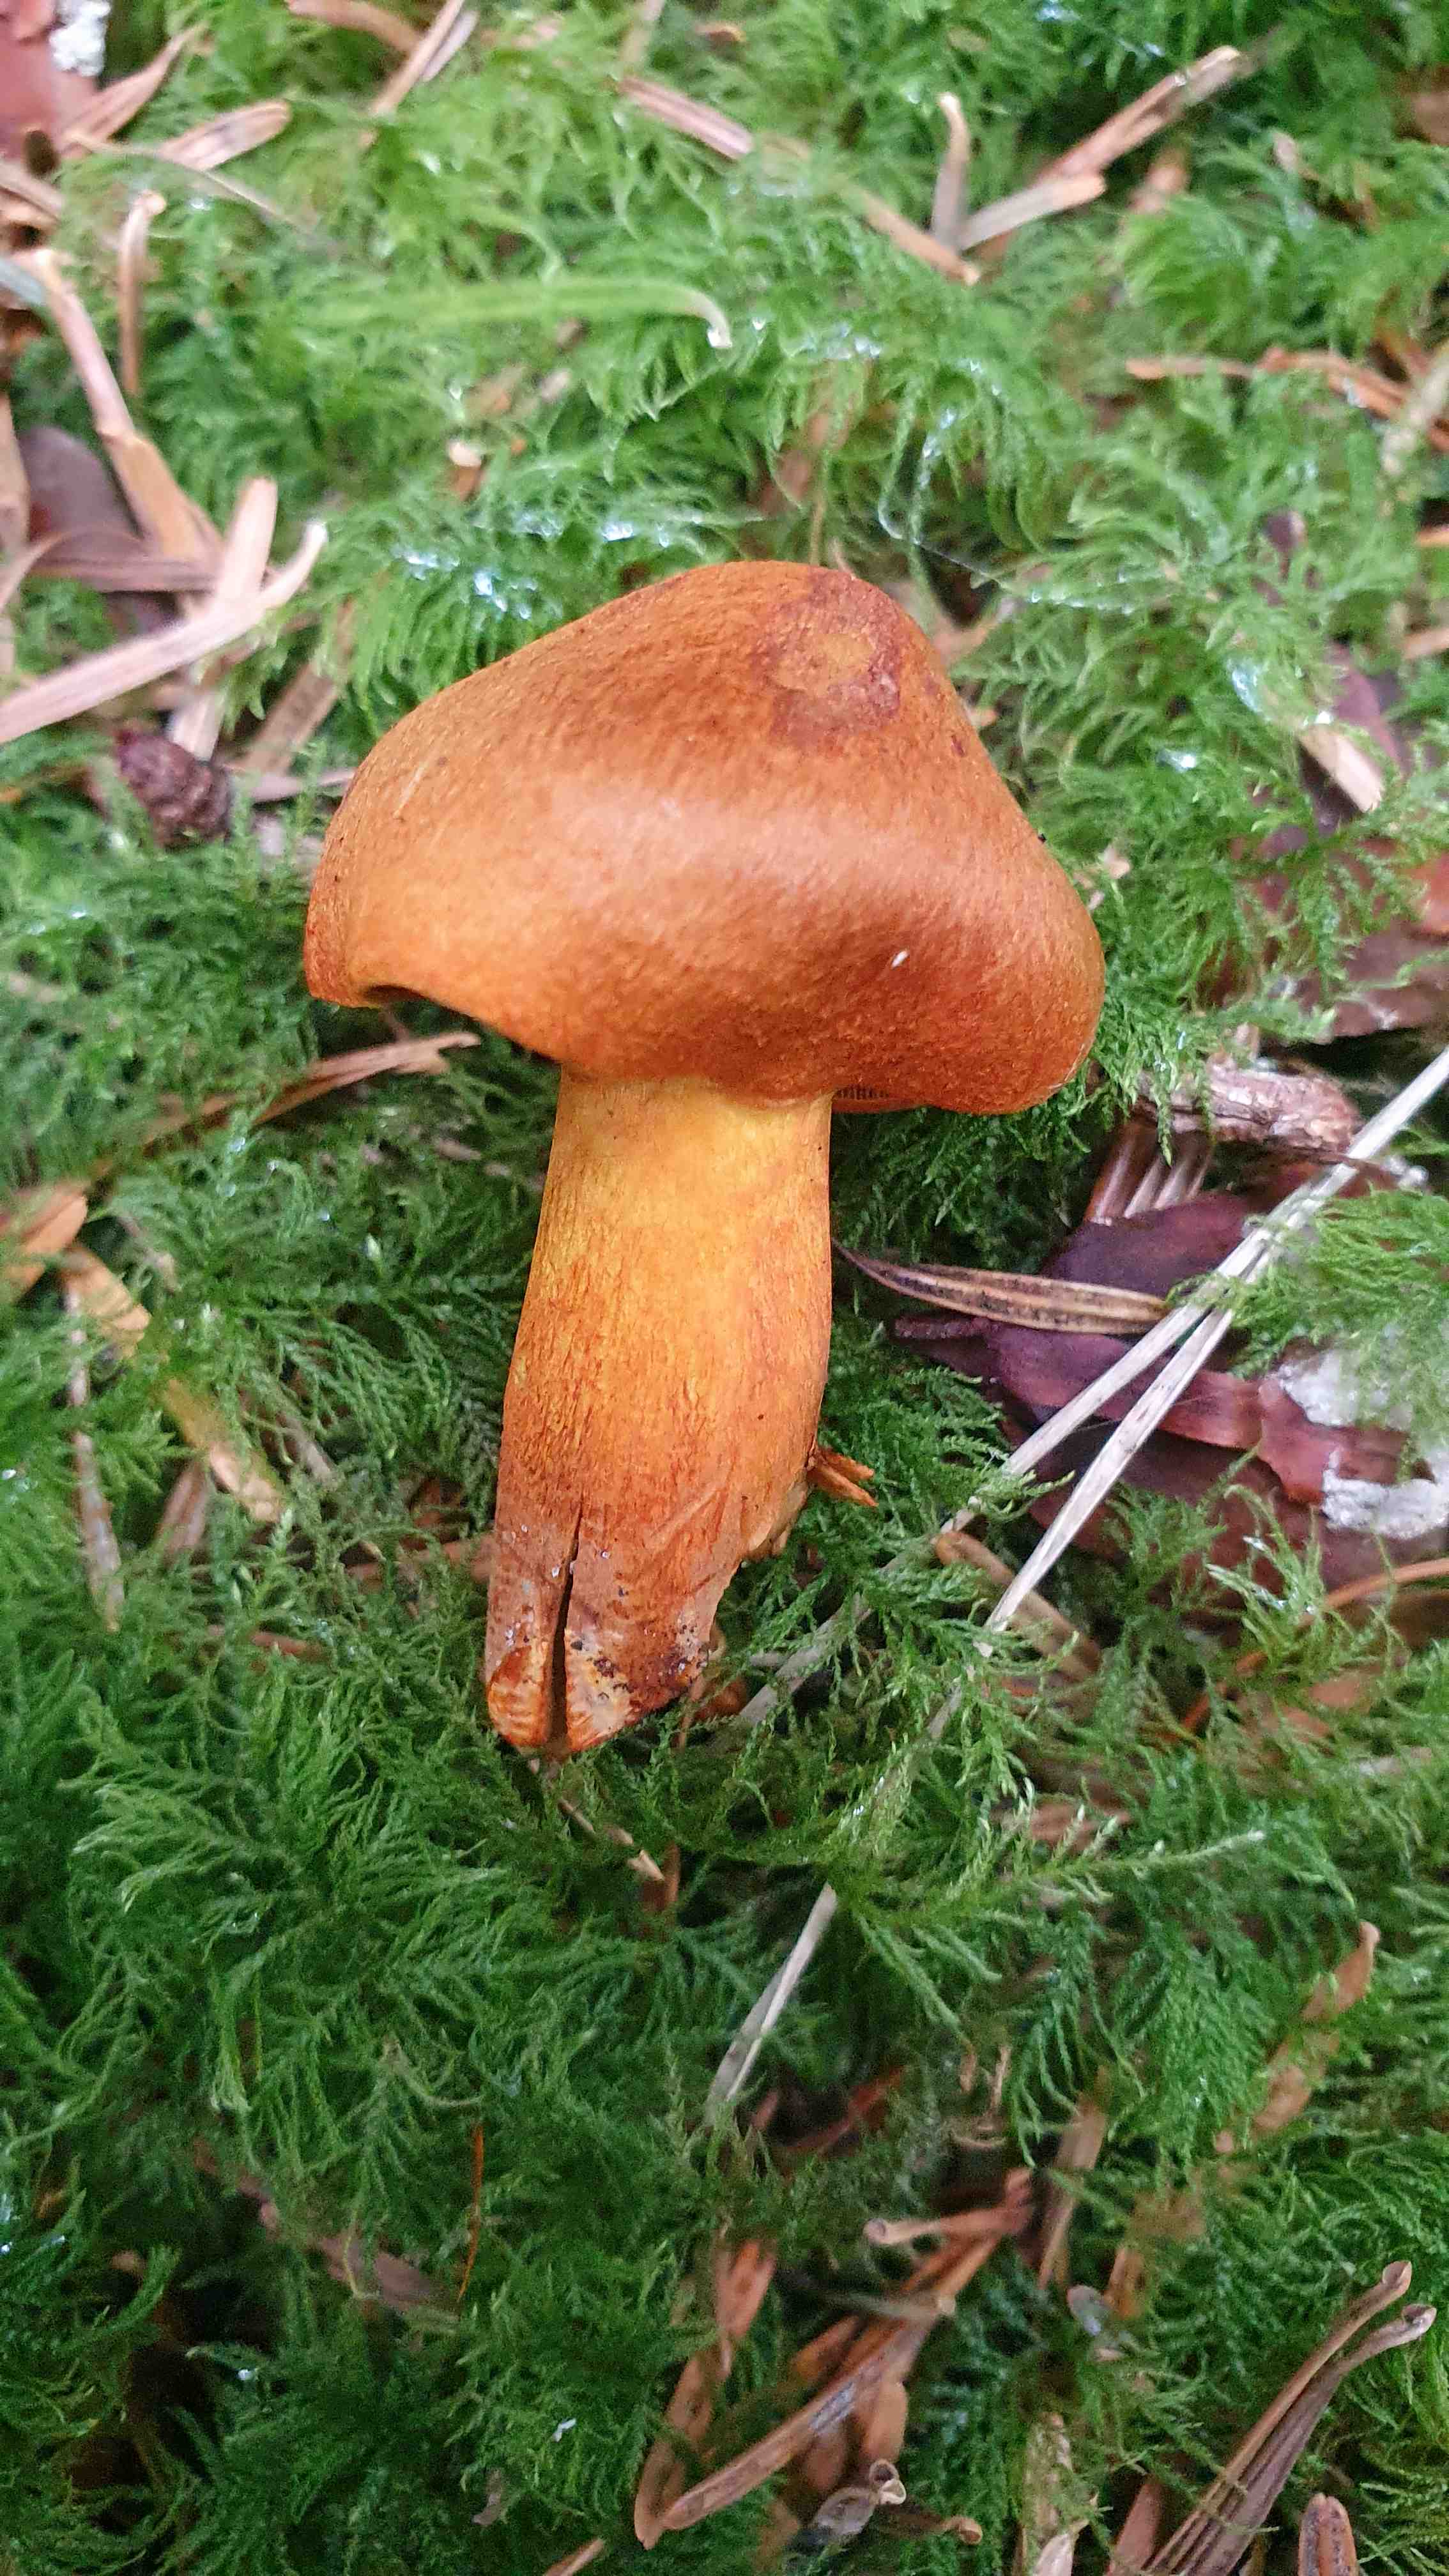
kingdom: Fungi
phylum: Basidiomycota
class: Agaricomycetes
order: Agaricales
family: Cortinariaceae
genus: Cortinarius
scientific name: Cortinarius malicorius
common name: grønkødet slørhat
